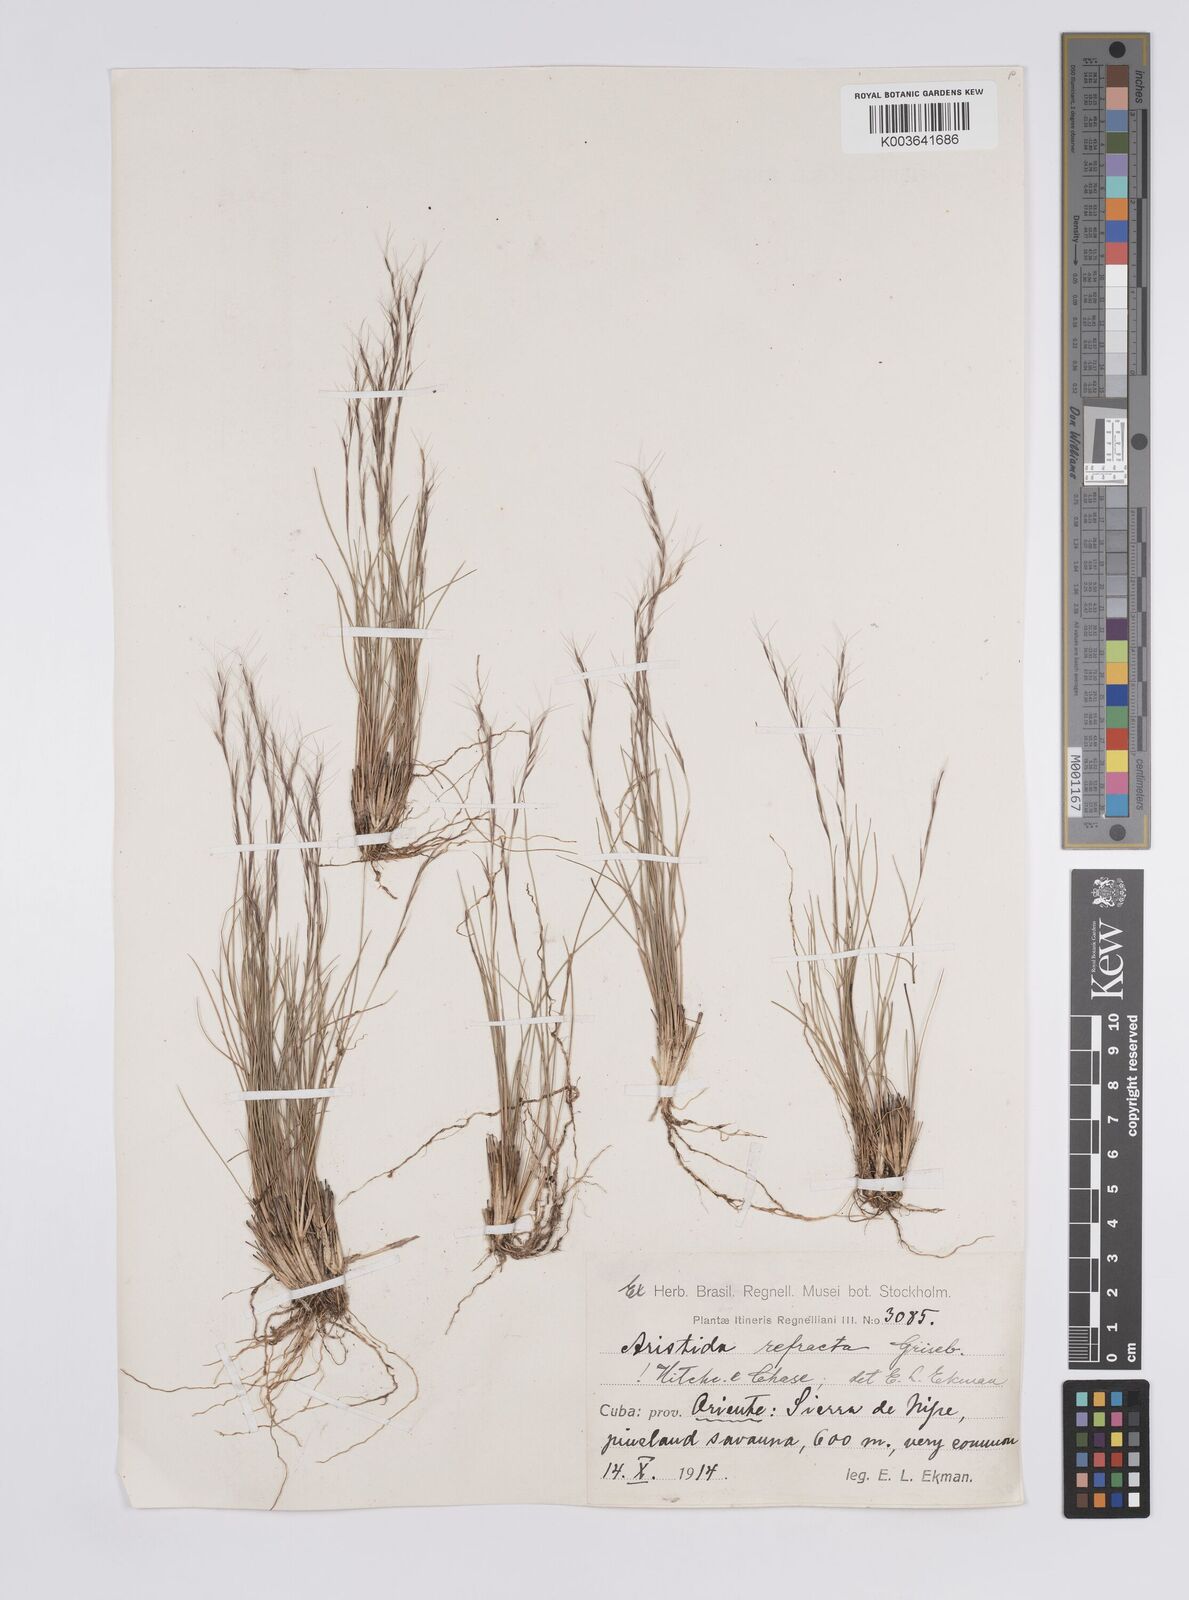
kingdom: Plantae
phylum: Tracheophyta
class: Liliopsida
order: Poales
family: Poaceae
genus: Aristida
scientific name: Aristida refracta
